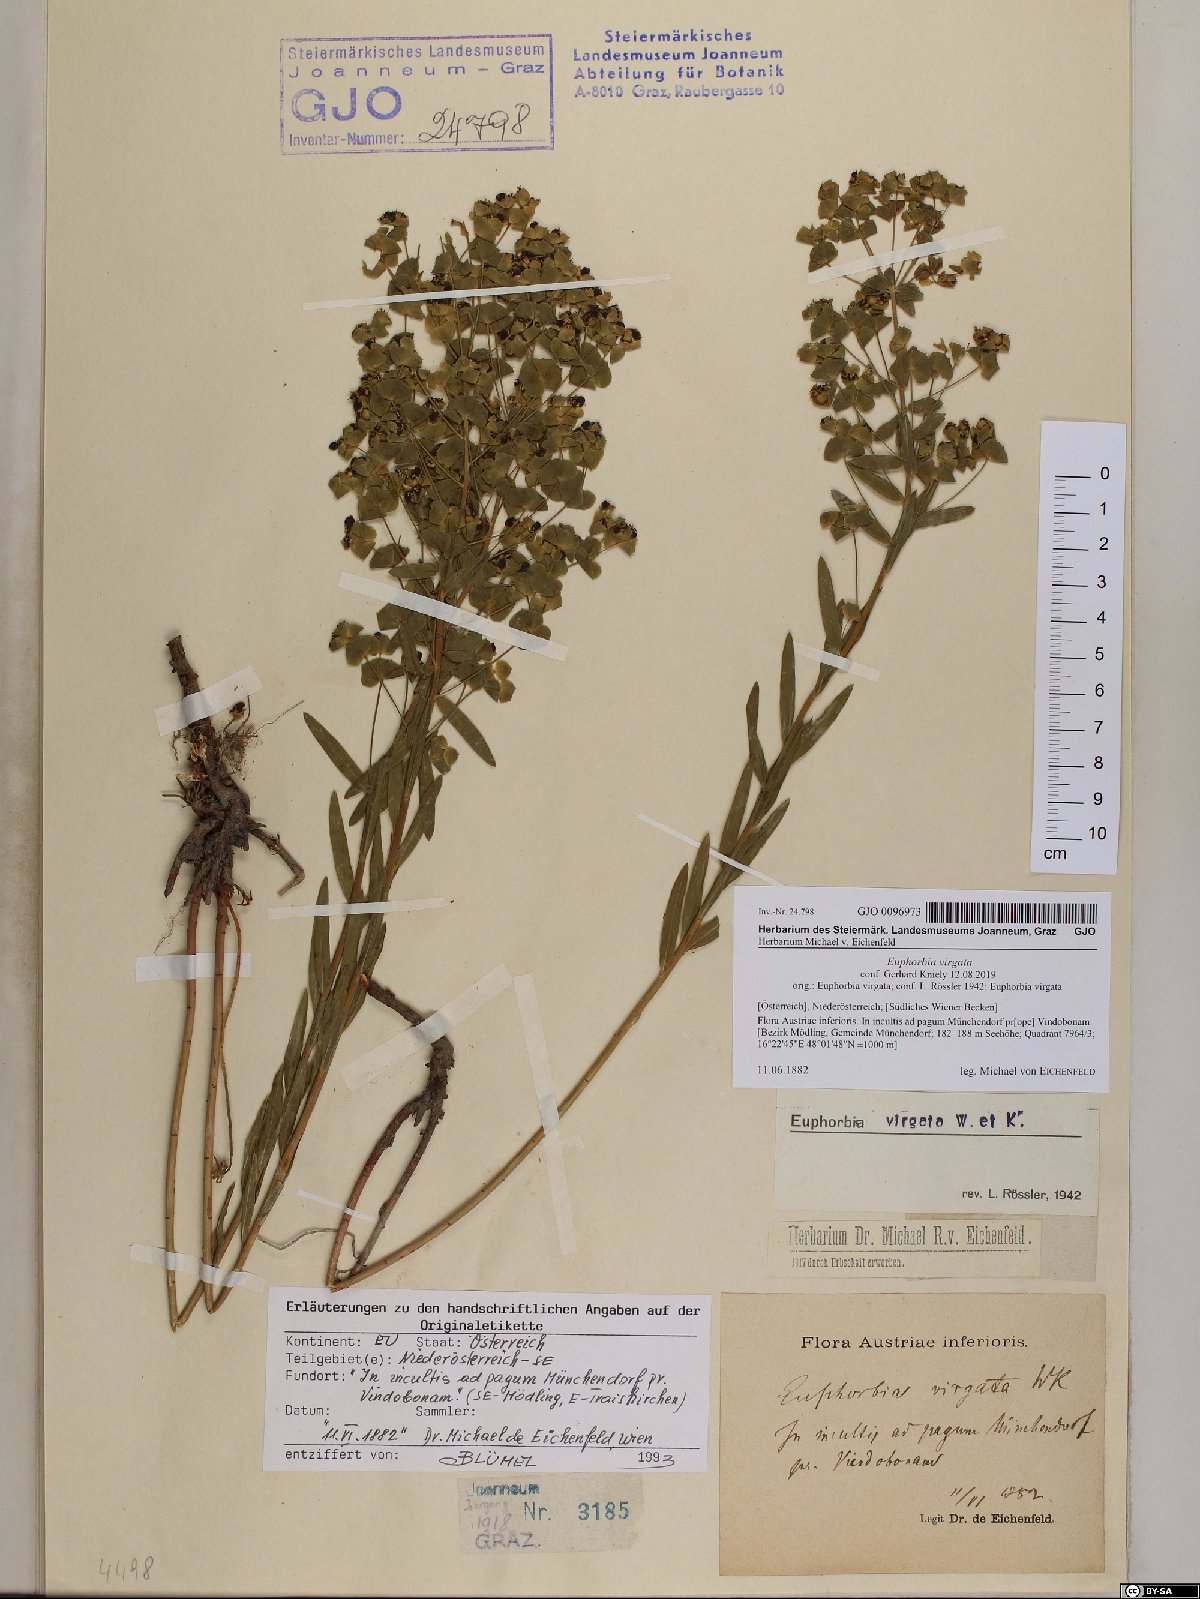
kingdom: Plantae
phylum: Tracheophyta
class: Magnoliopsida
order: Malpighiales
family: Euphorbiaceae
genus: Euphorbia
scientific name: Euphorbia virgata
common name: Leafy spurge
